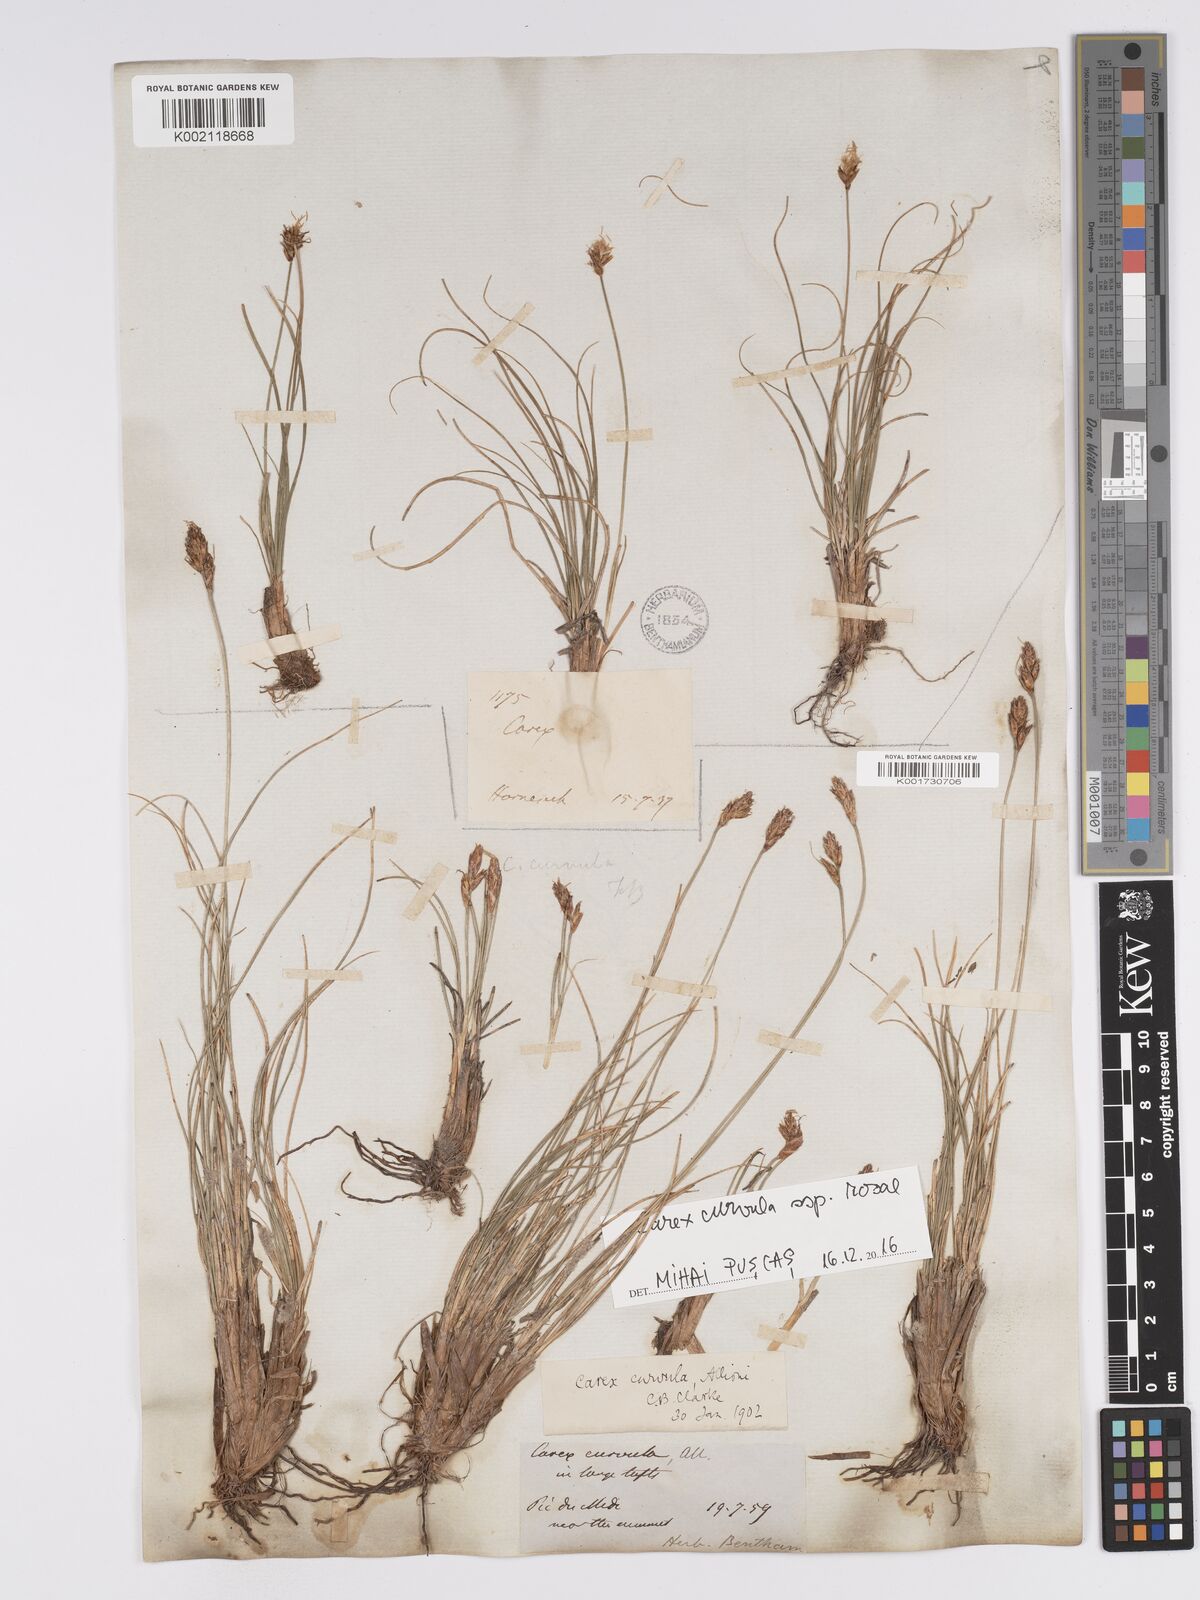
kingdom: Plantae
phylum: Tracheophyta
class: Liliopsida
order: Poales
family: Cyperaceae
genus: Carex
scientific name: Carex curvula
